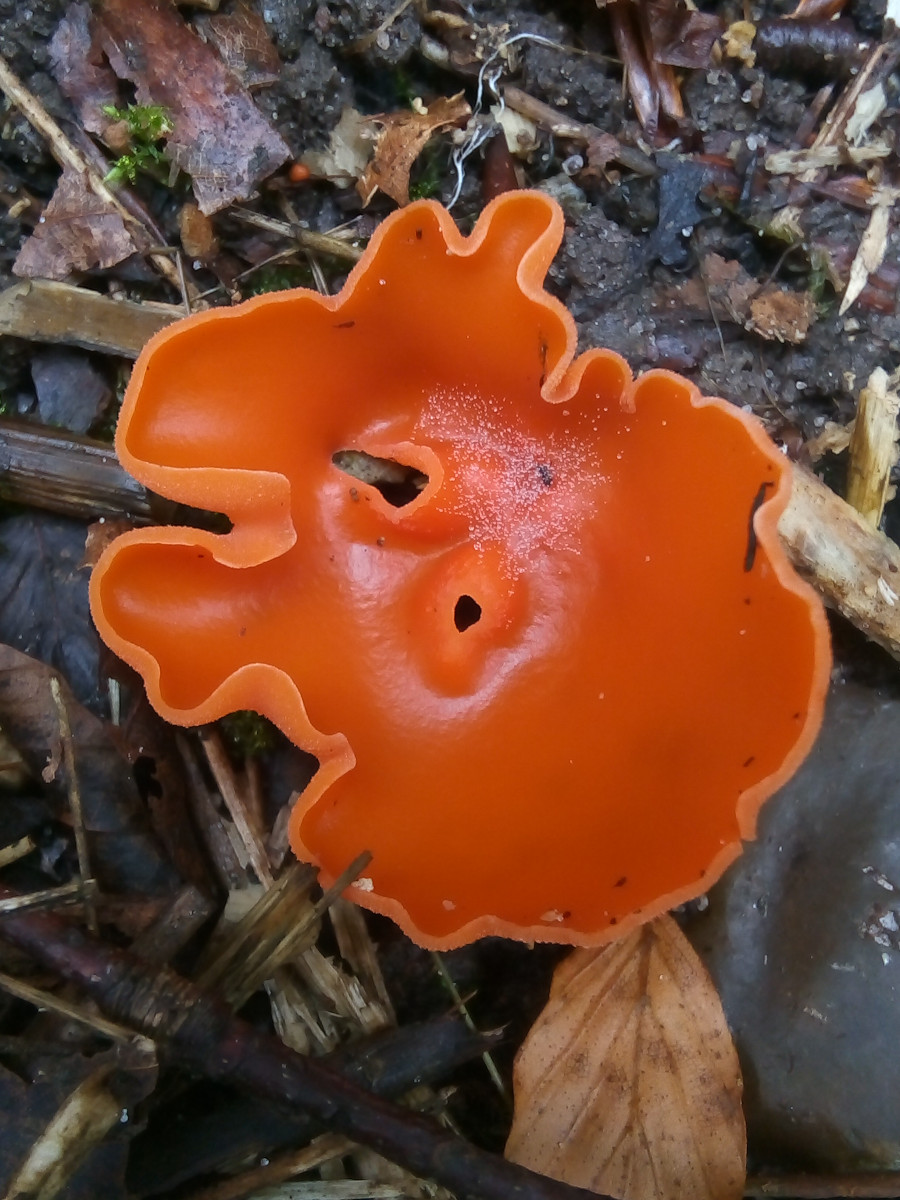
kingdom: Fungi
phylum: Ascomycota
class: Pezizomycetes
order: Pezizales
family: Pyronemataceae
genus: Aleuria
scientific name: Aleuria aurantia
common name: almindelig orangebæger
